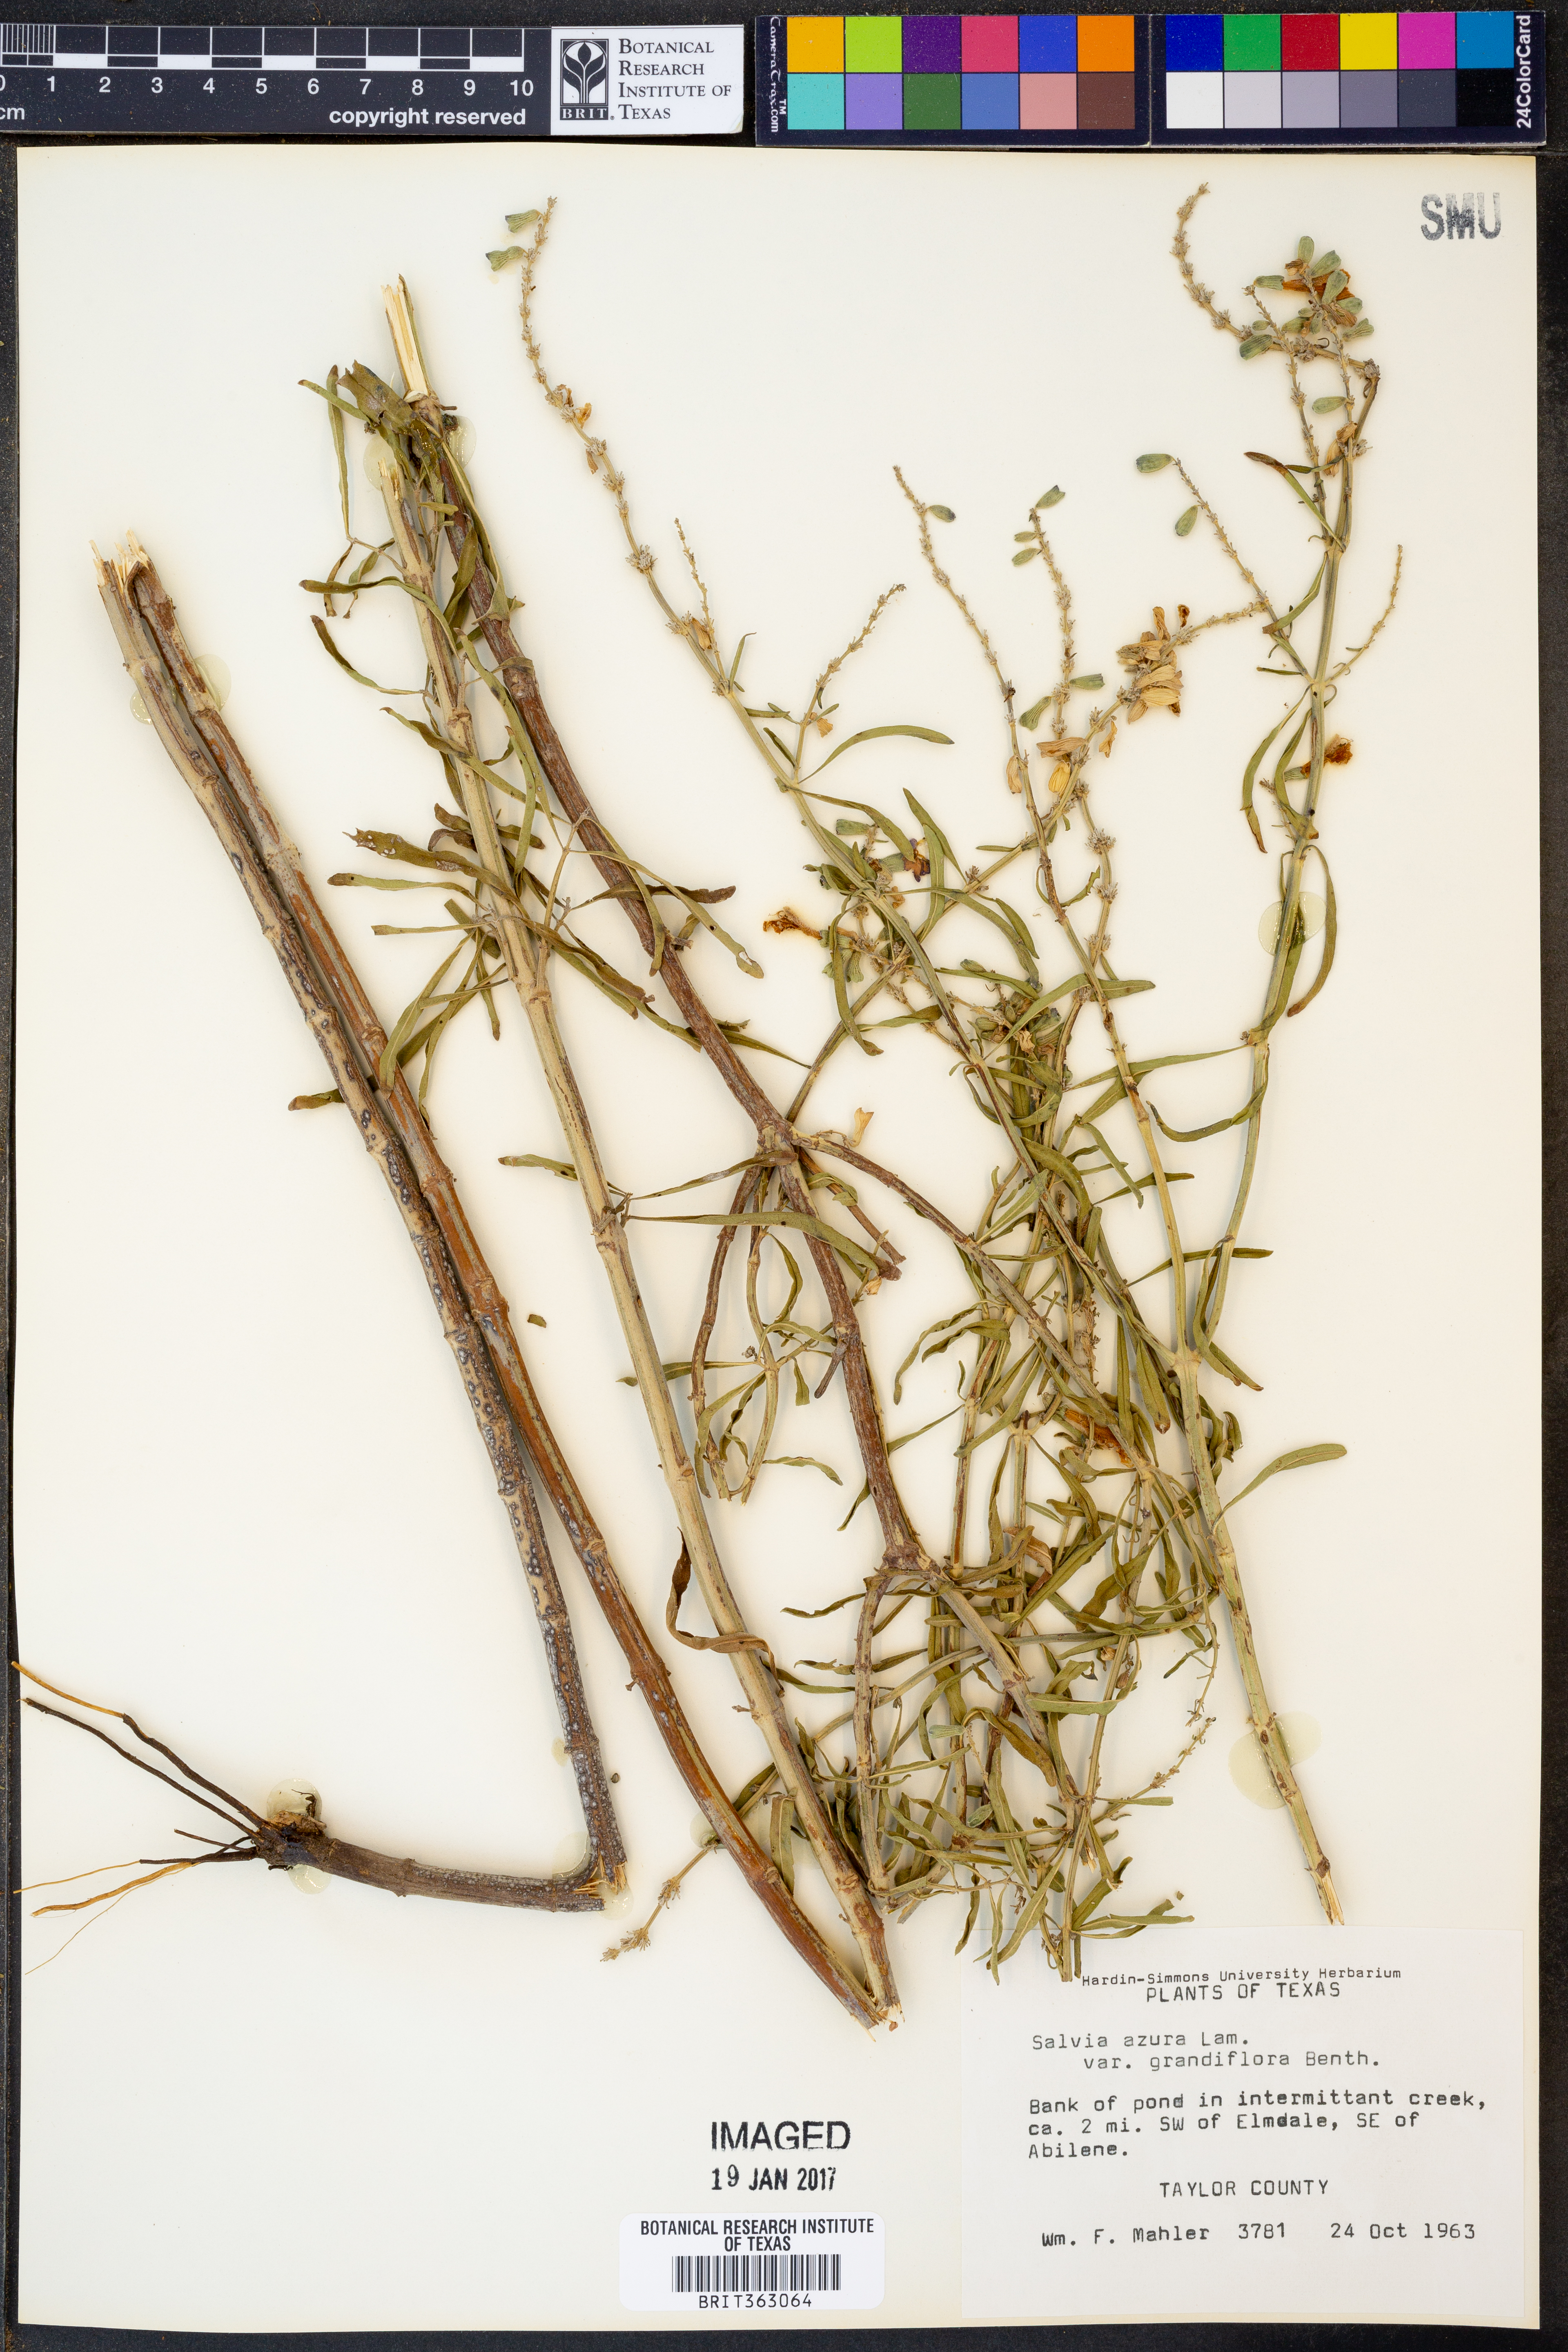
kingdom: Plantae
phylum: Tracheophyta
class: Magnoliopsida
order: Lamiales
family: Lamiaceae
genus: Salvia
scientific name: Salvia azurea
